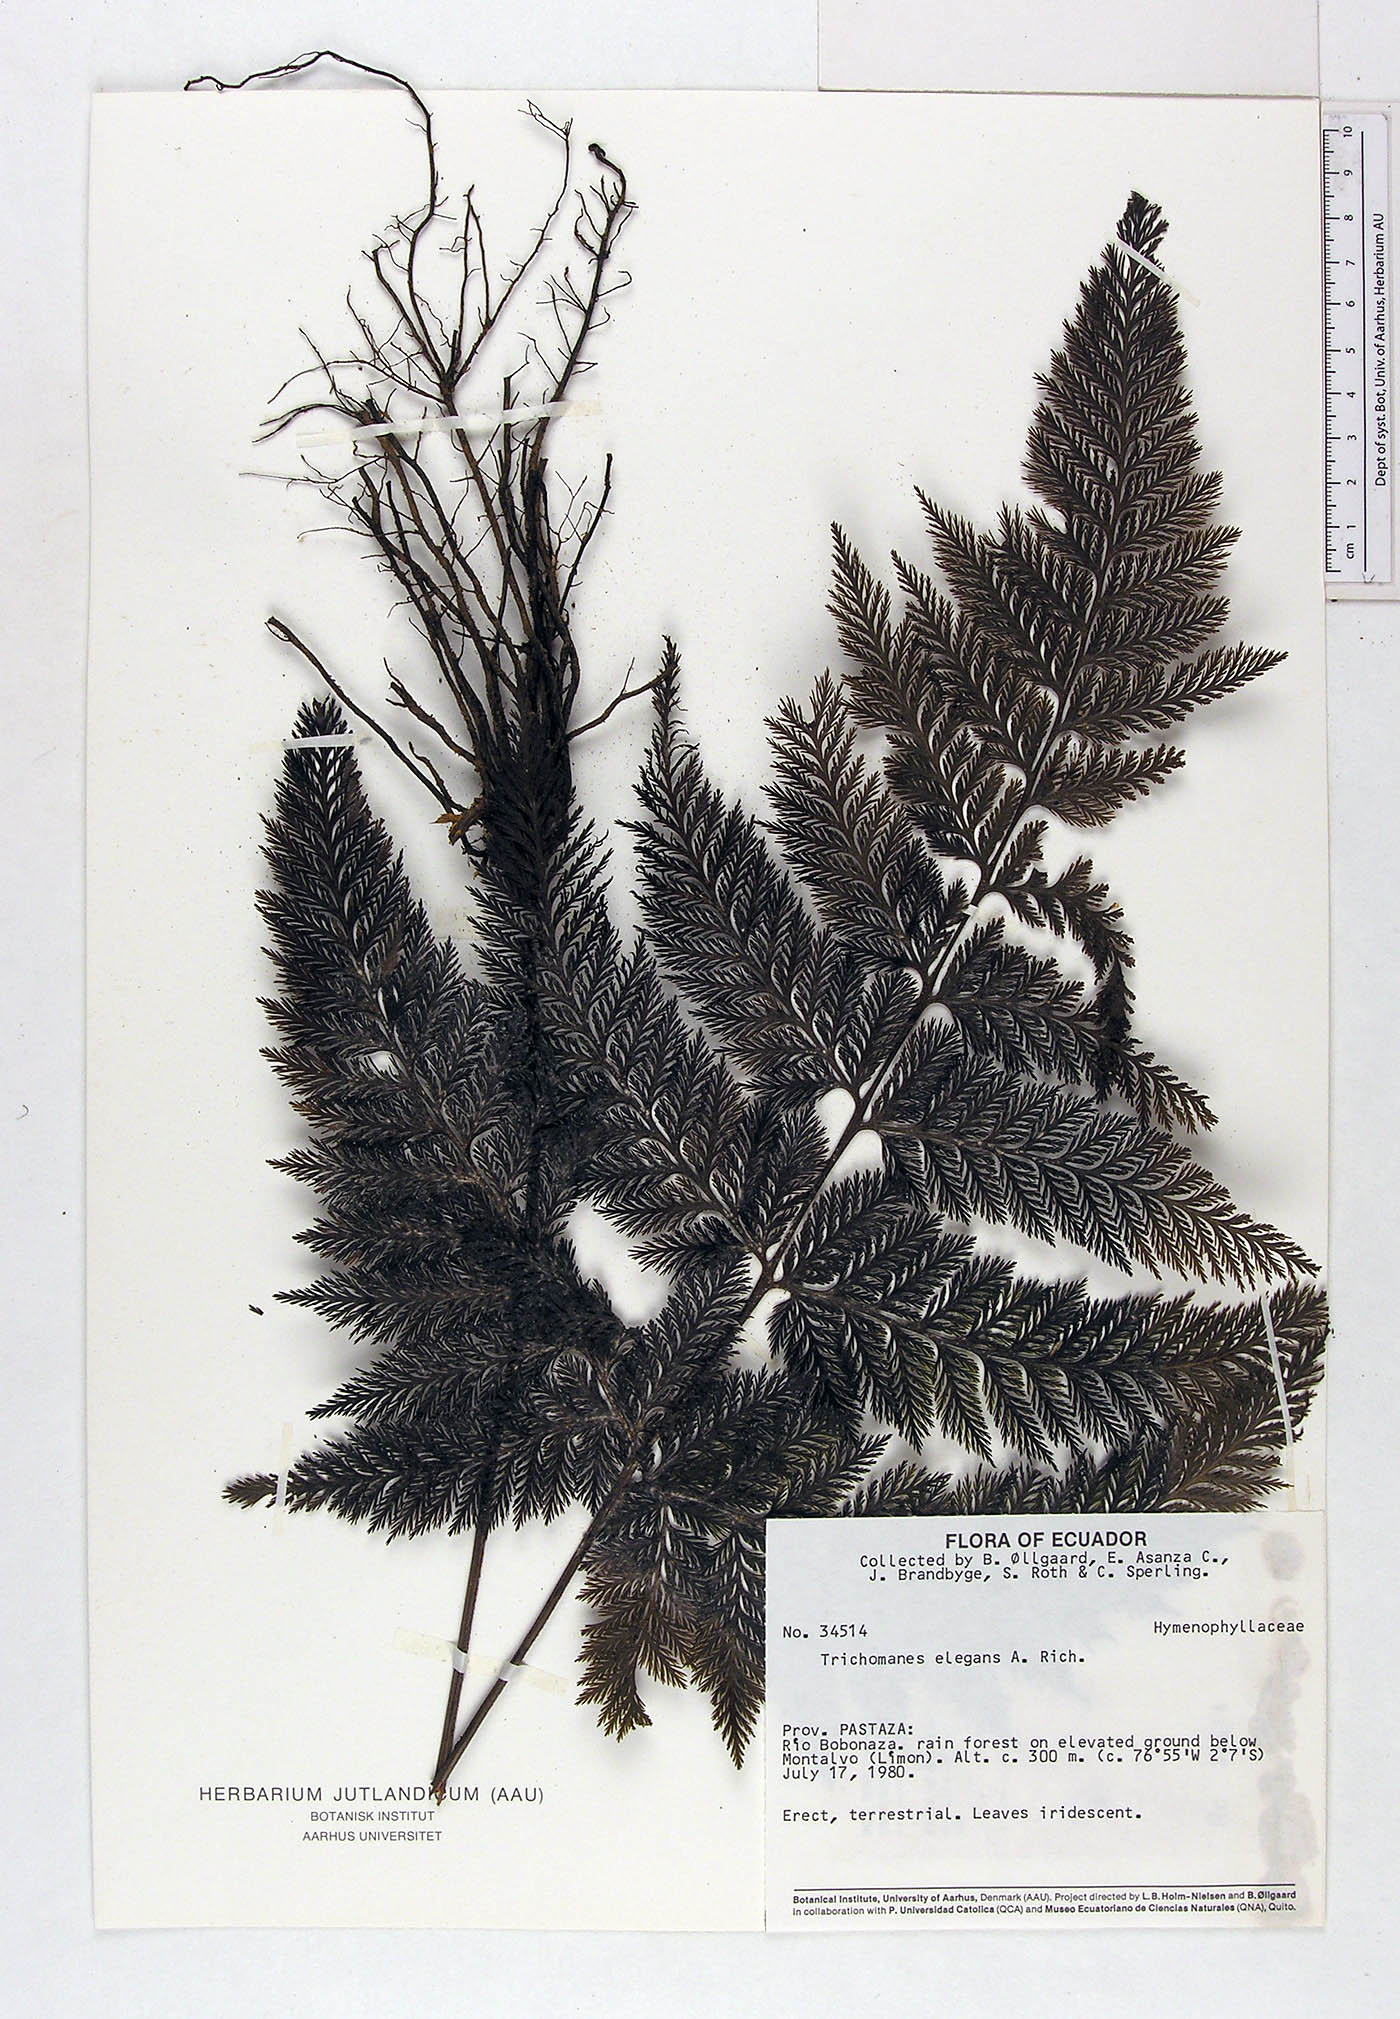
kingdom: Plantae
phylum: Tracheophyta
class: Polypodiopsida
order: Hymenophyllales
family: Hymenophyllaceae
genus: Trichomanes
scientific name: Trichomanes elegans
